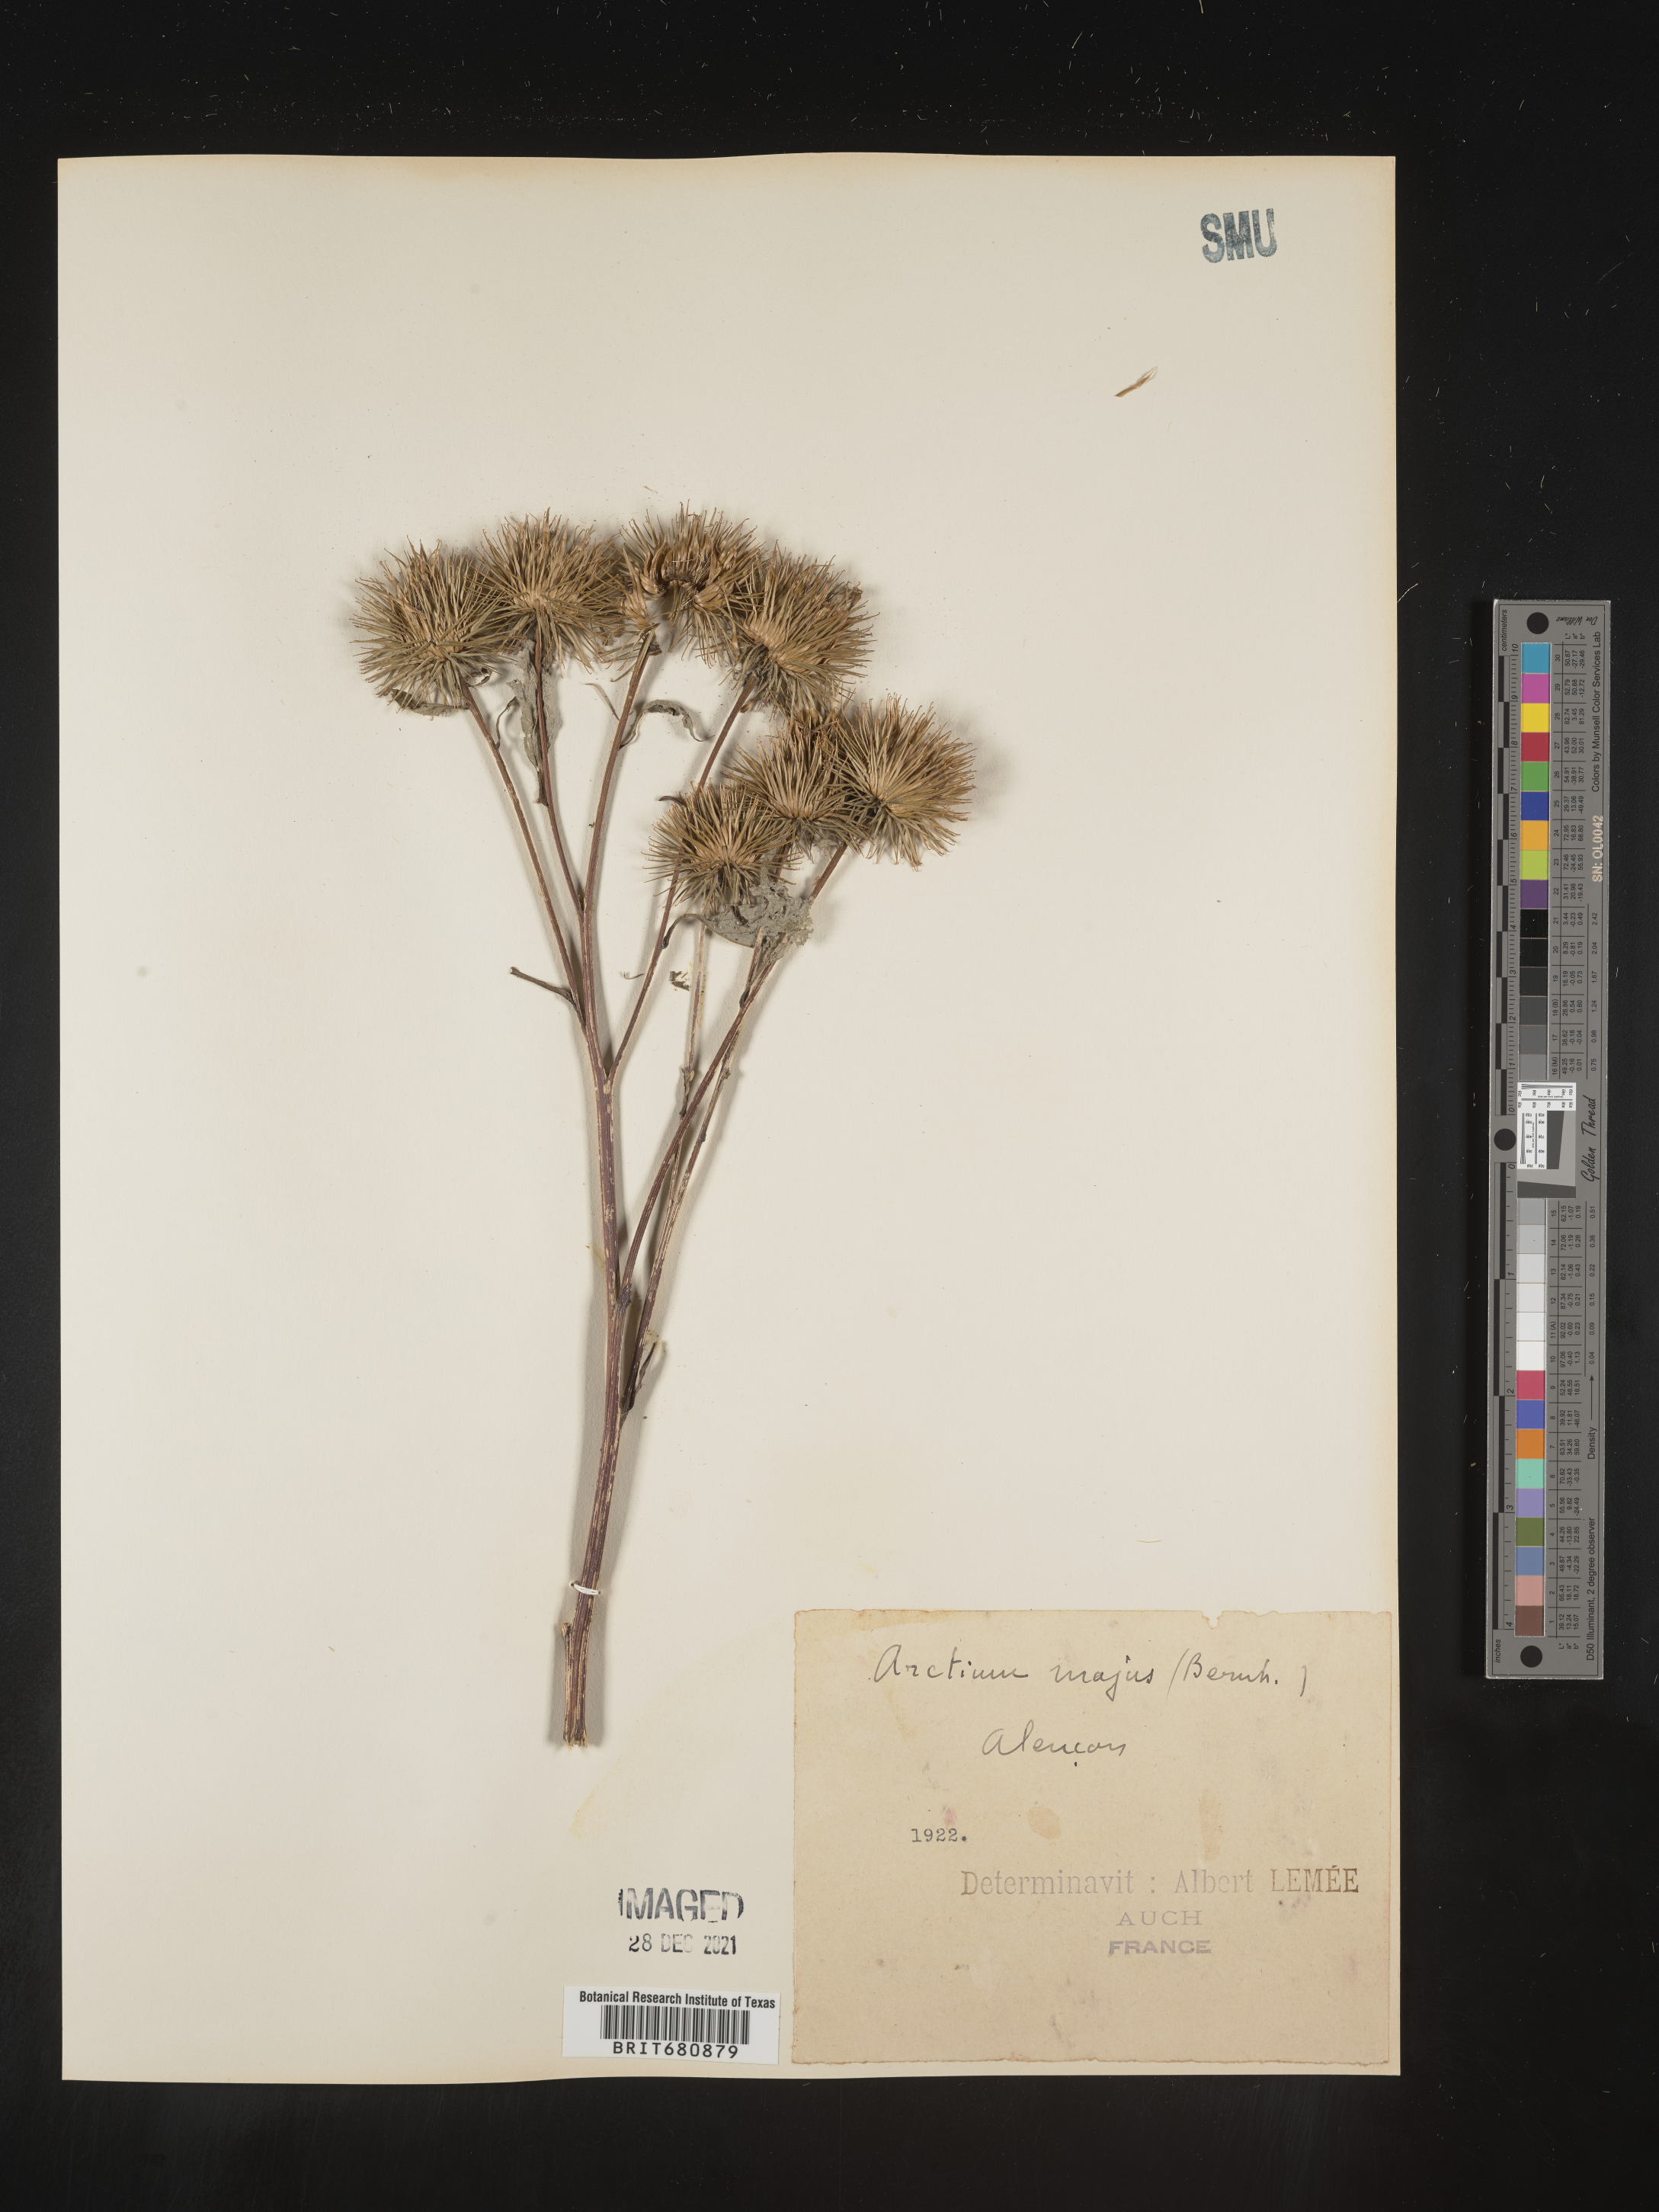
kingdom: Plantae
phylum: Tracheophyta
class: Magnoliopsida
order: Asterales
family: Asteraceae
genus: Arctium
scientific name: Arctium
